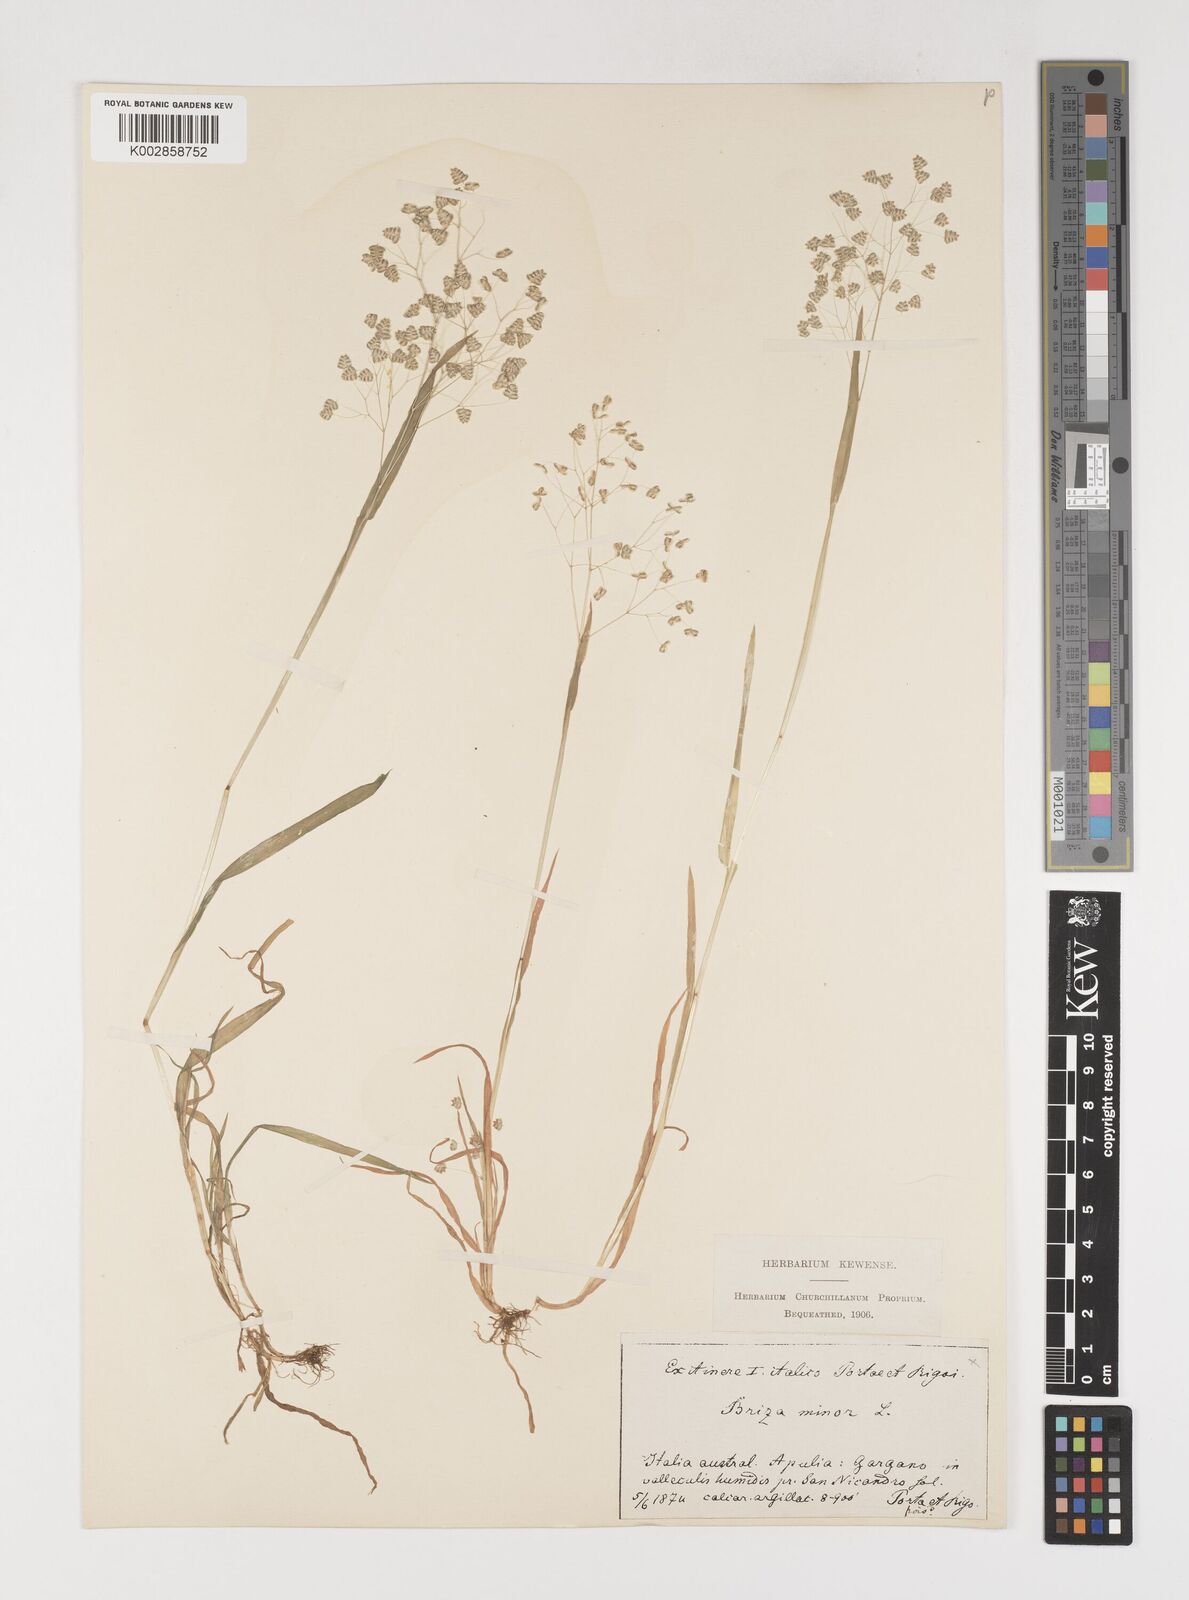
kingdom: Plantae
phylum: Tracheophyta
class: Liliopsida
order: Poales
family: Poaceae
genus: Briza
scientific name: Briza minor
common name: Lesser quaking-grass
